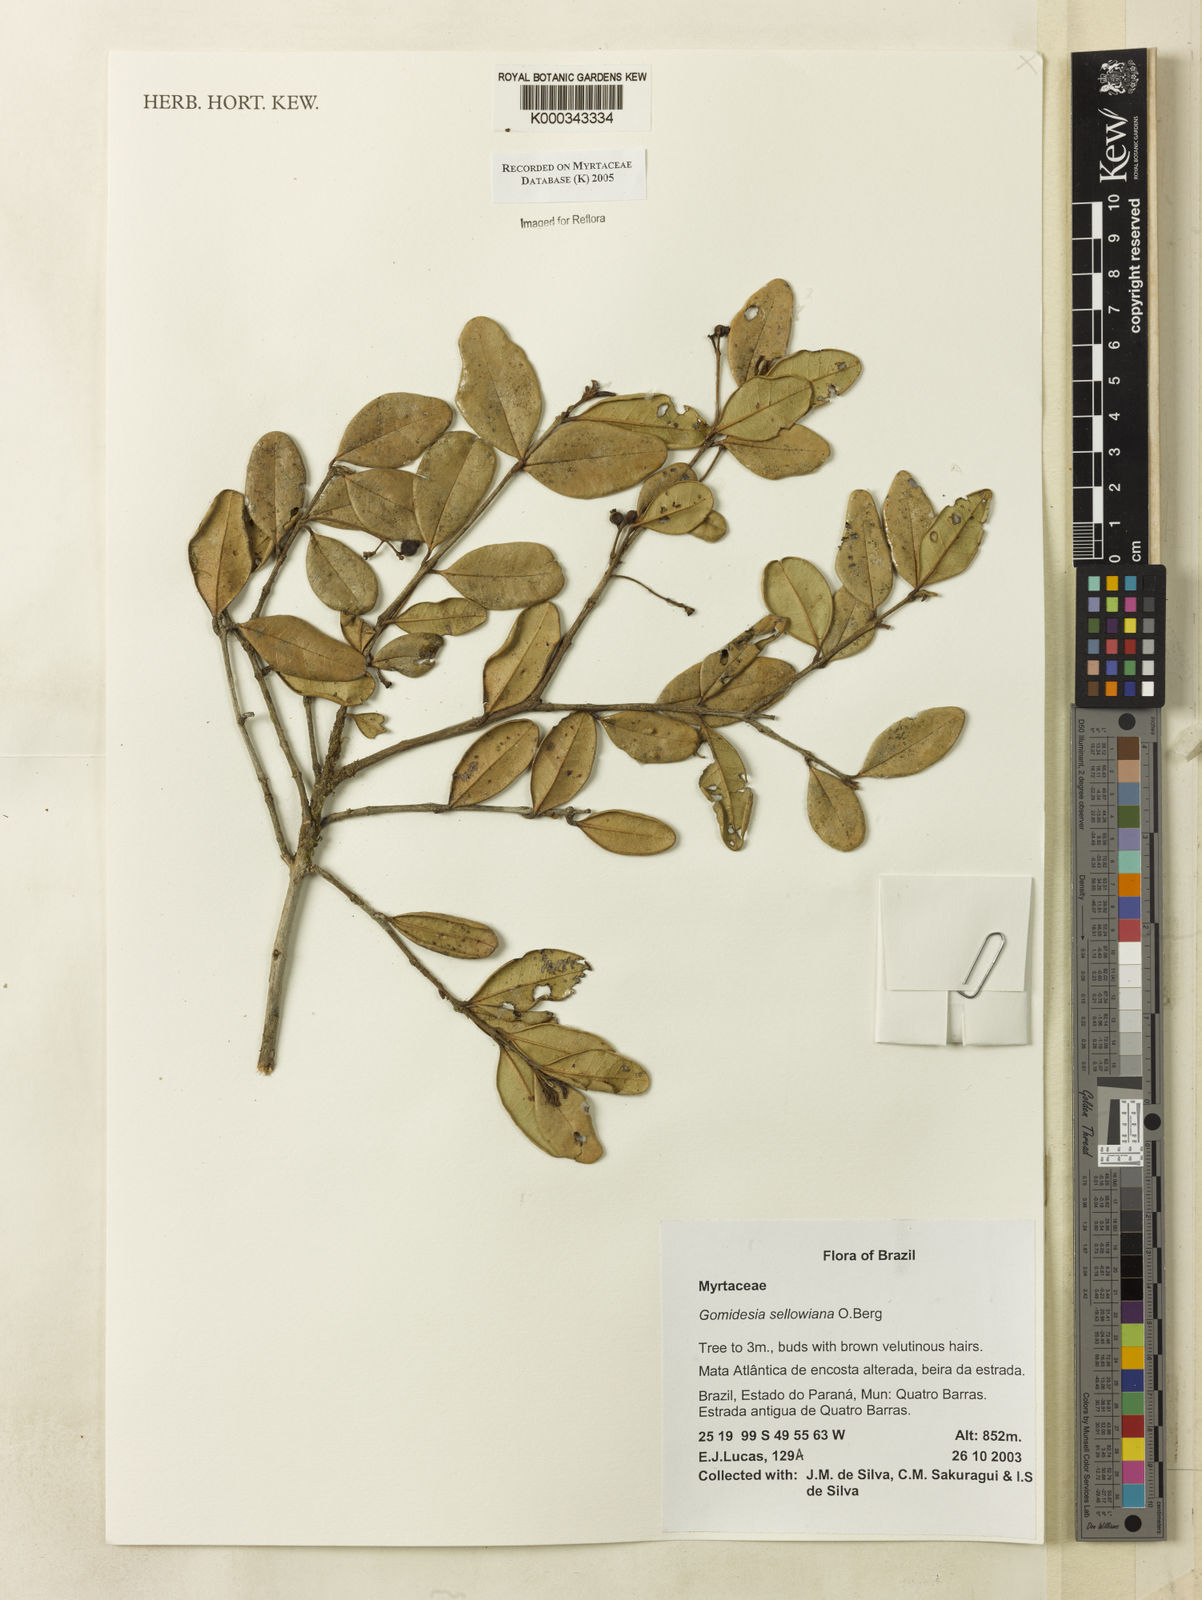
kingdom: Plantae
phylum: Tracheophyta
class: Magnoliopsida
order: Myrtales
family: Myrtaceae
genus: Myrcia
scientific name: Myrcia hartwegiana
